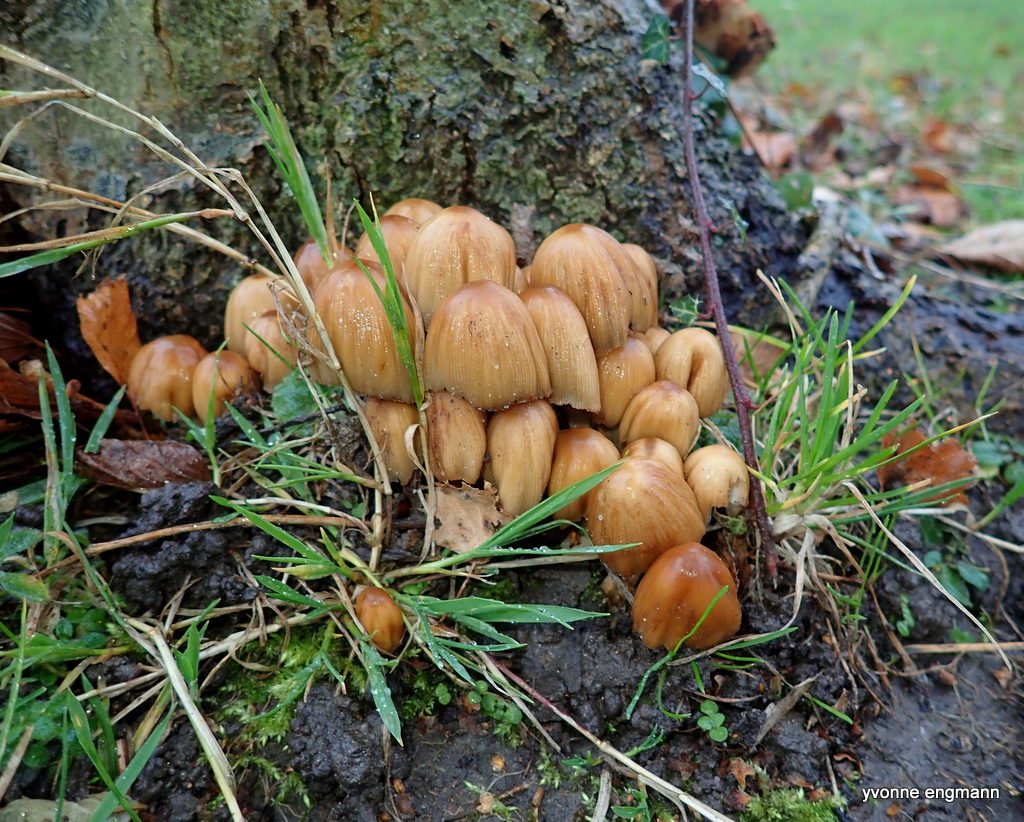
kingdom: Fungi
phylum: Basidiomycota
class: Agaricomycetes
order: Agaricales
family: Psathyrellaceae
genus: Coprinellus
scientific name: Coprinellus micaceus
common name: glimmer-blækhat
